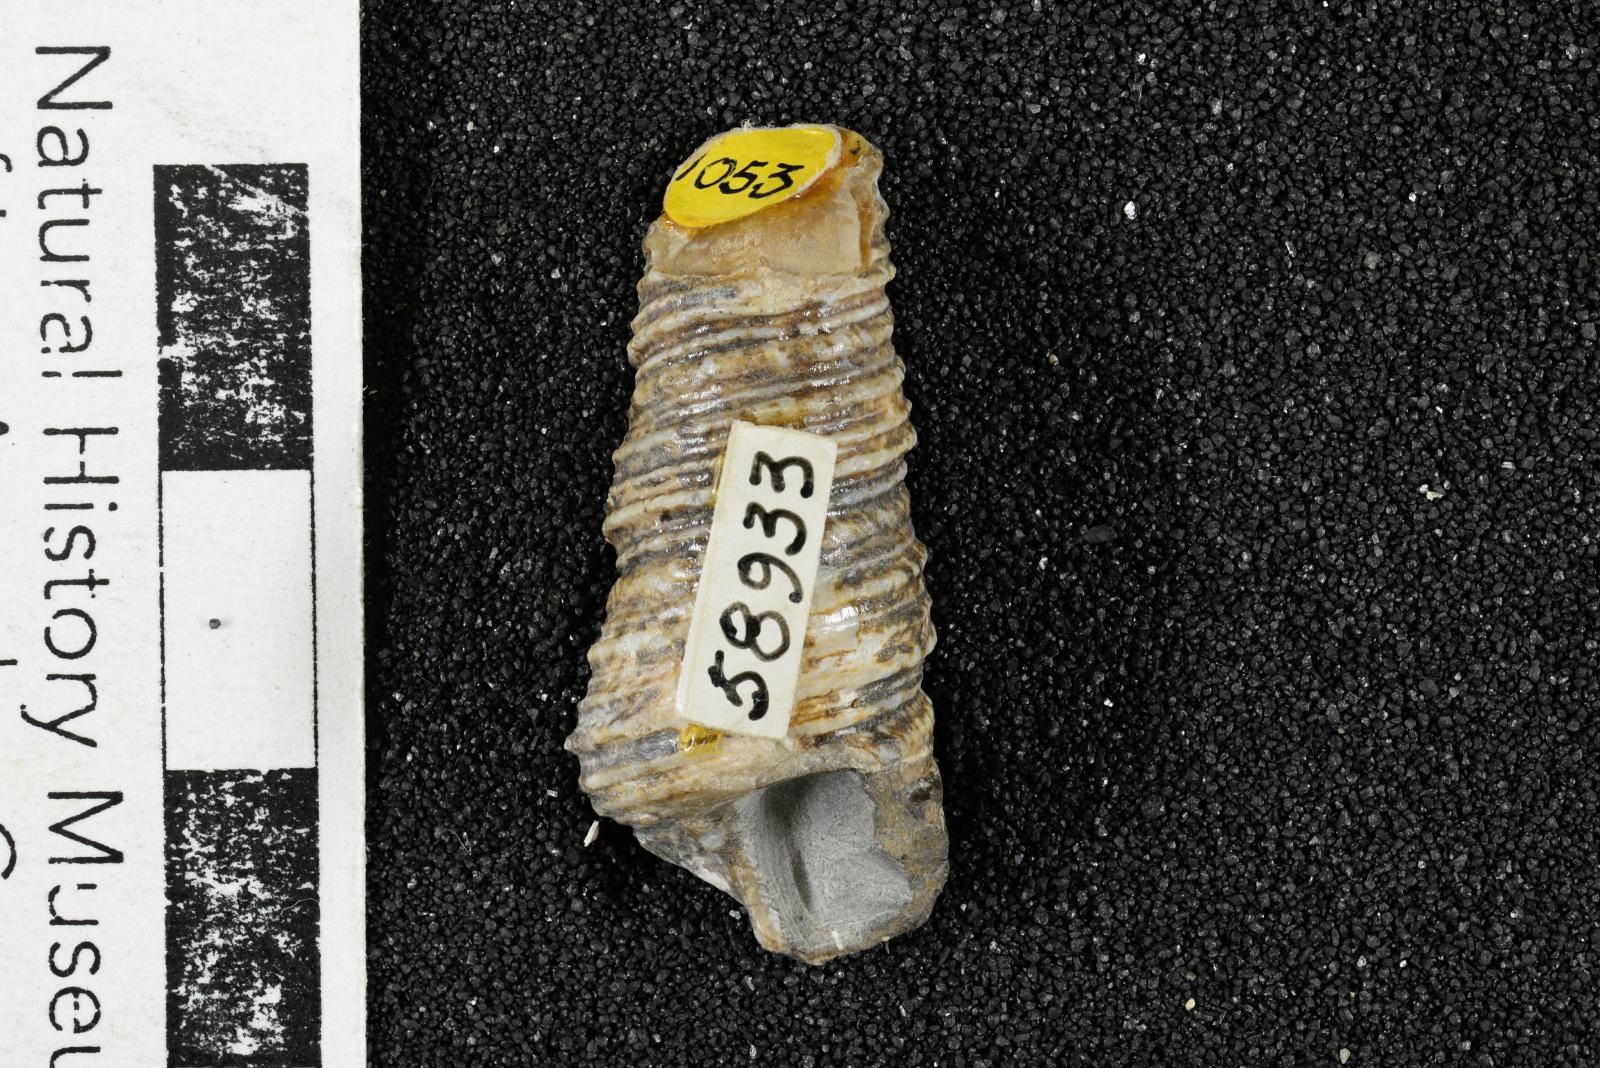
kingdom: Animalia
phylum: Mollusca
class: Gastropoda
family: Turritellidae
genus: Turritella
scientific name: Turritella packardi
